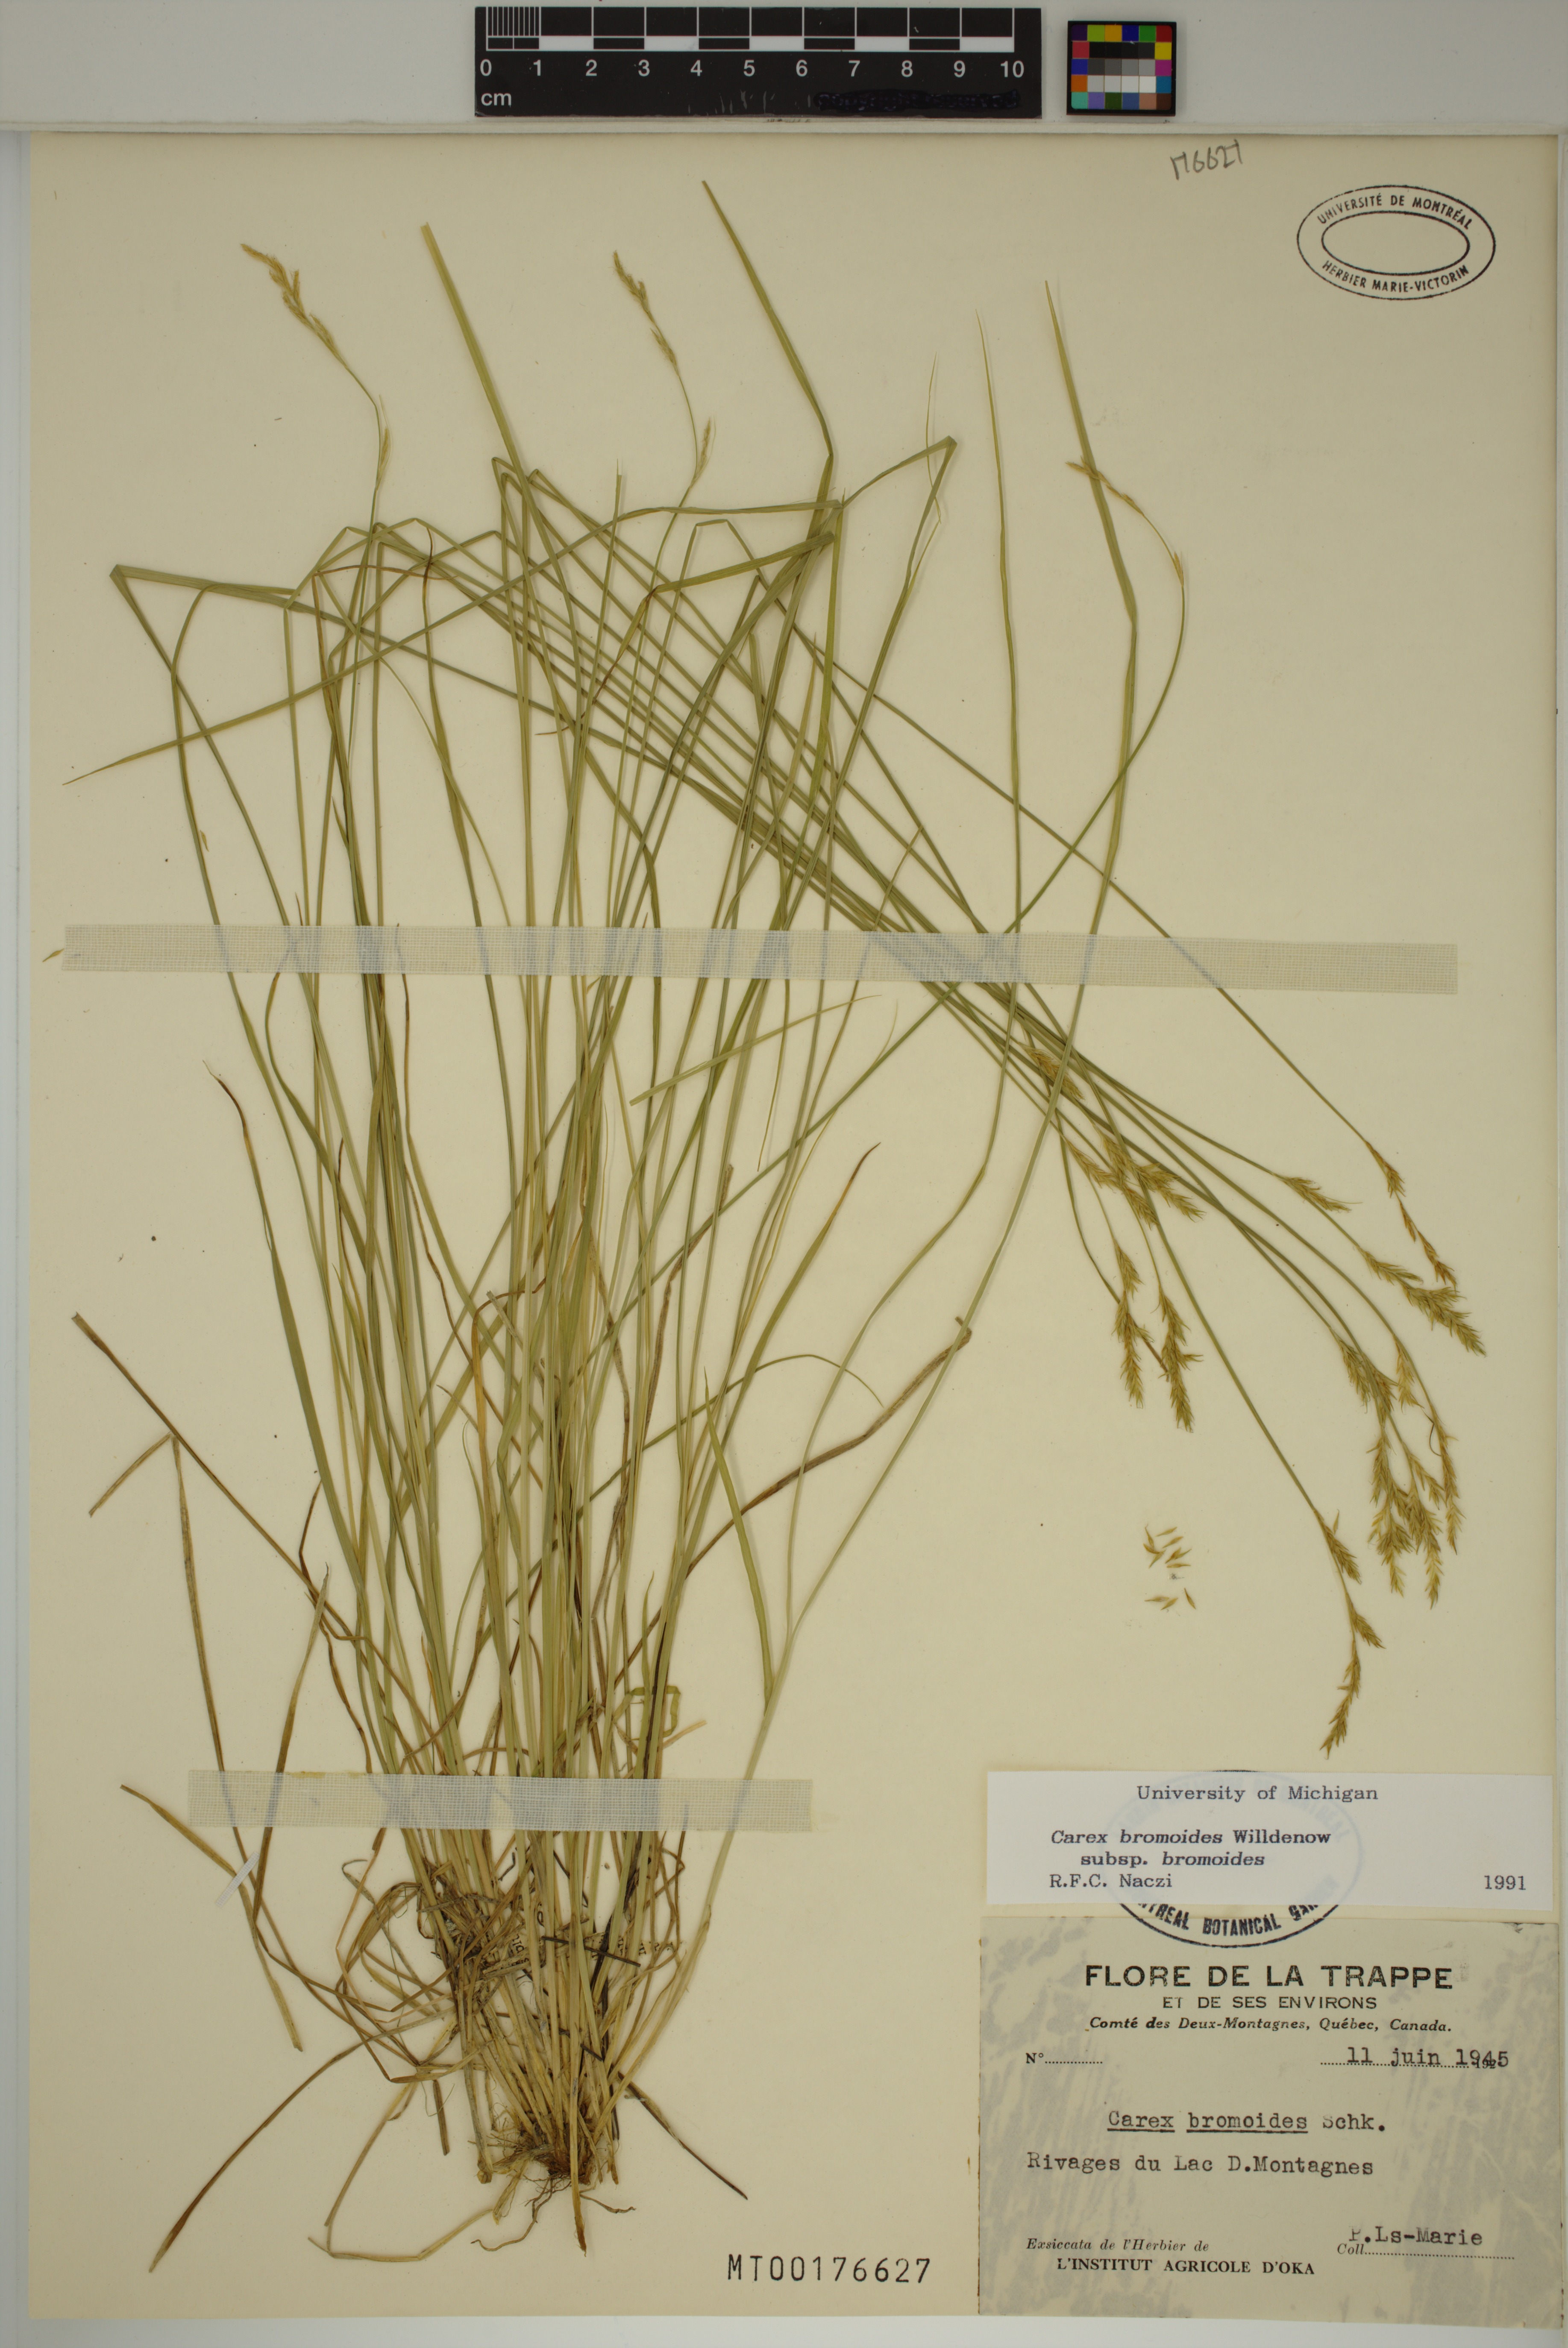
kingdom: Plantae
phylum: Tracheophyta
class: Liliopsida
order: Poales
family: Cyperaceae
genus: Carex
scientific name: Carex bromoides
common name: Brome hummock sedge
